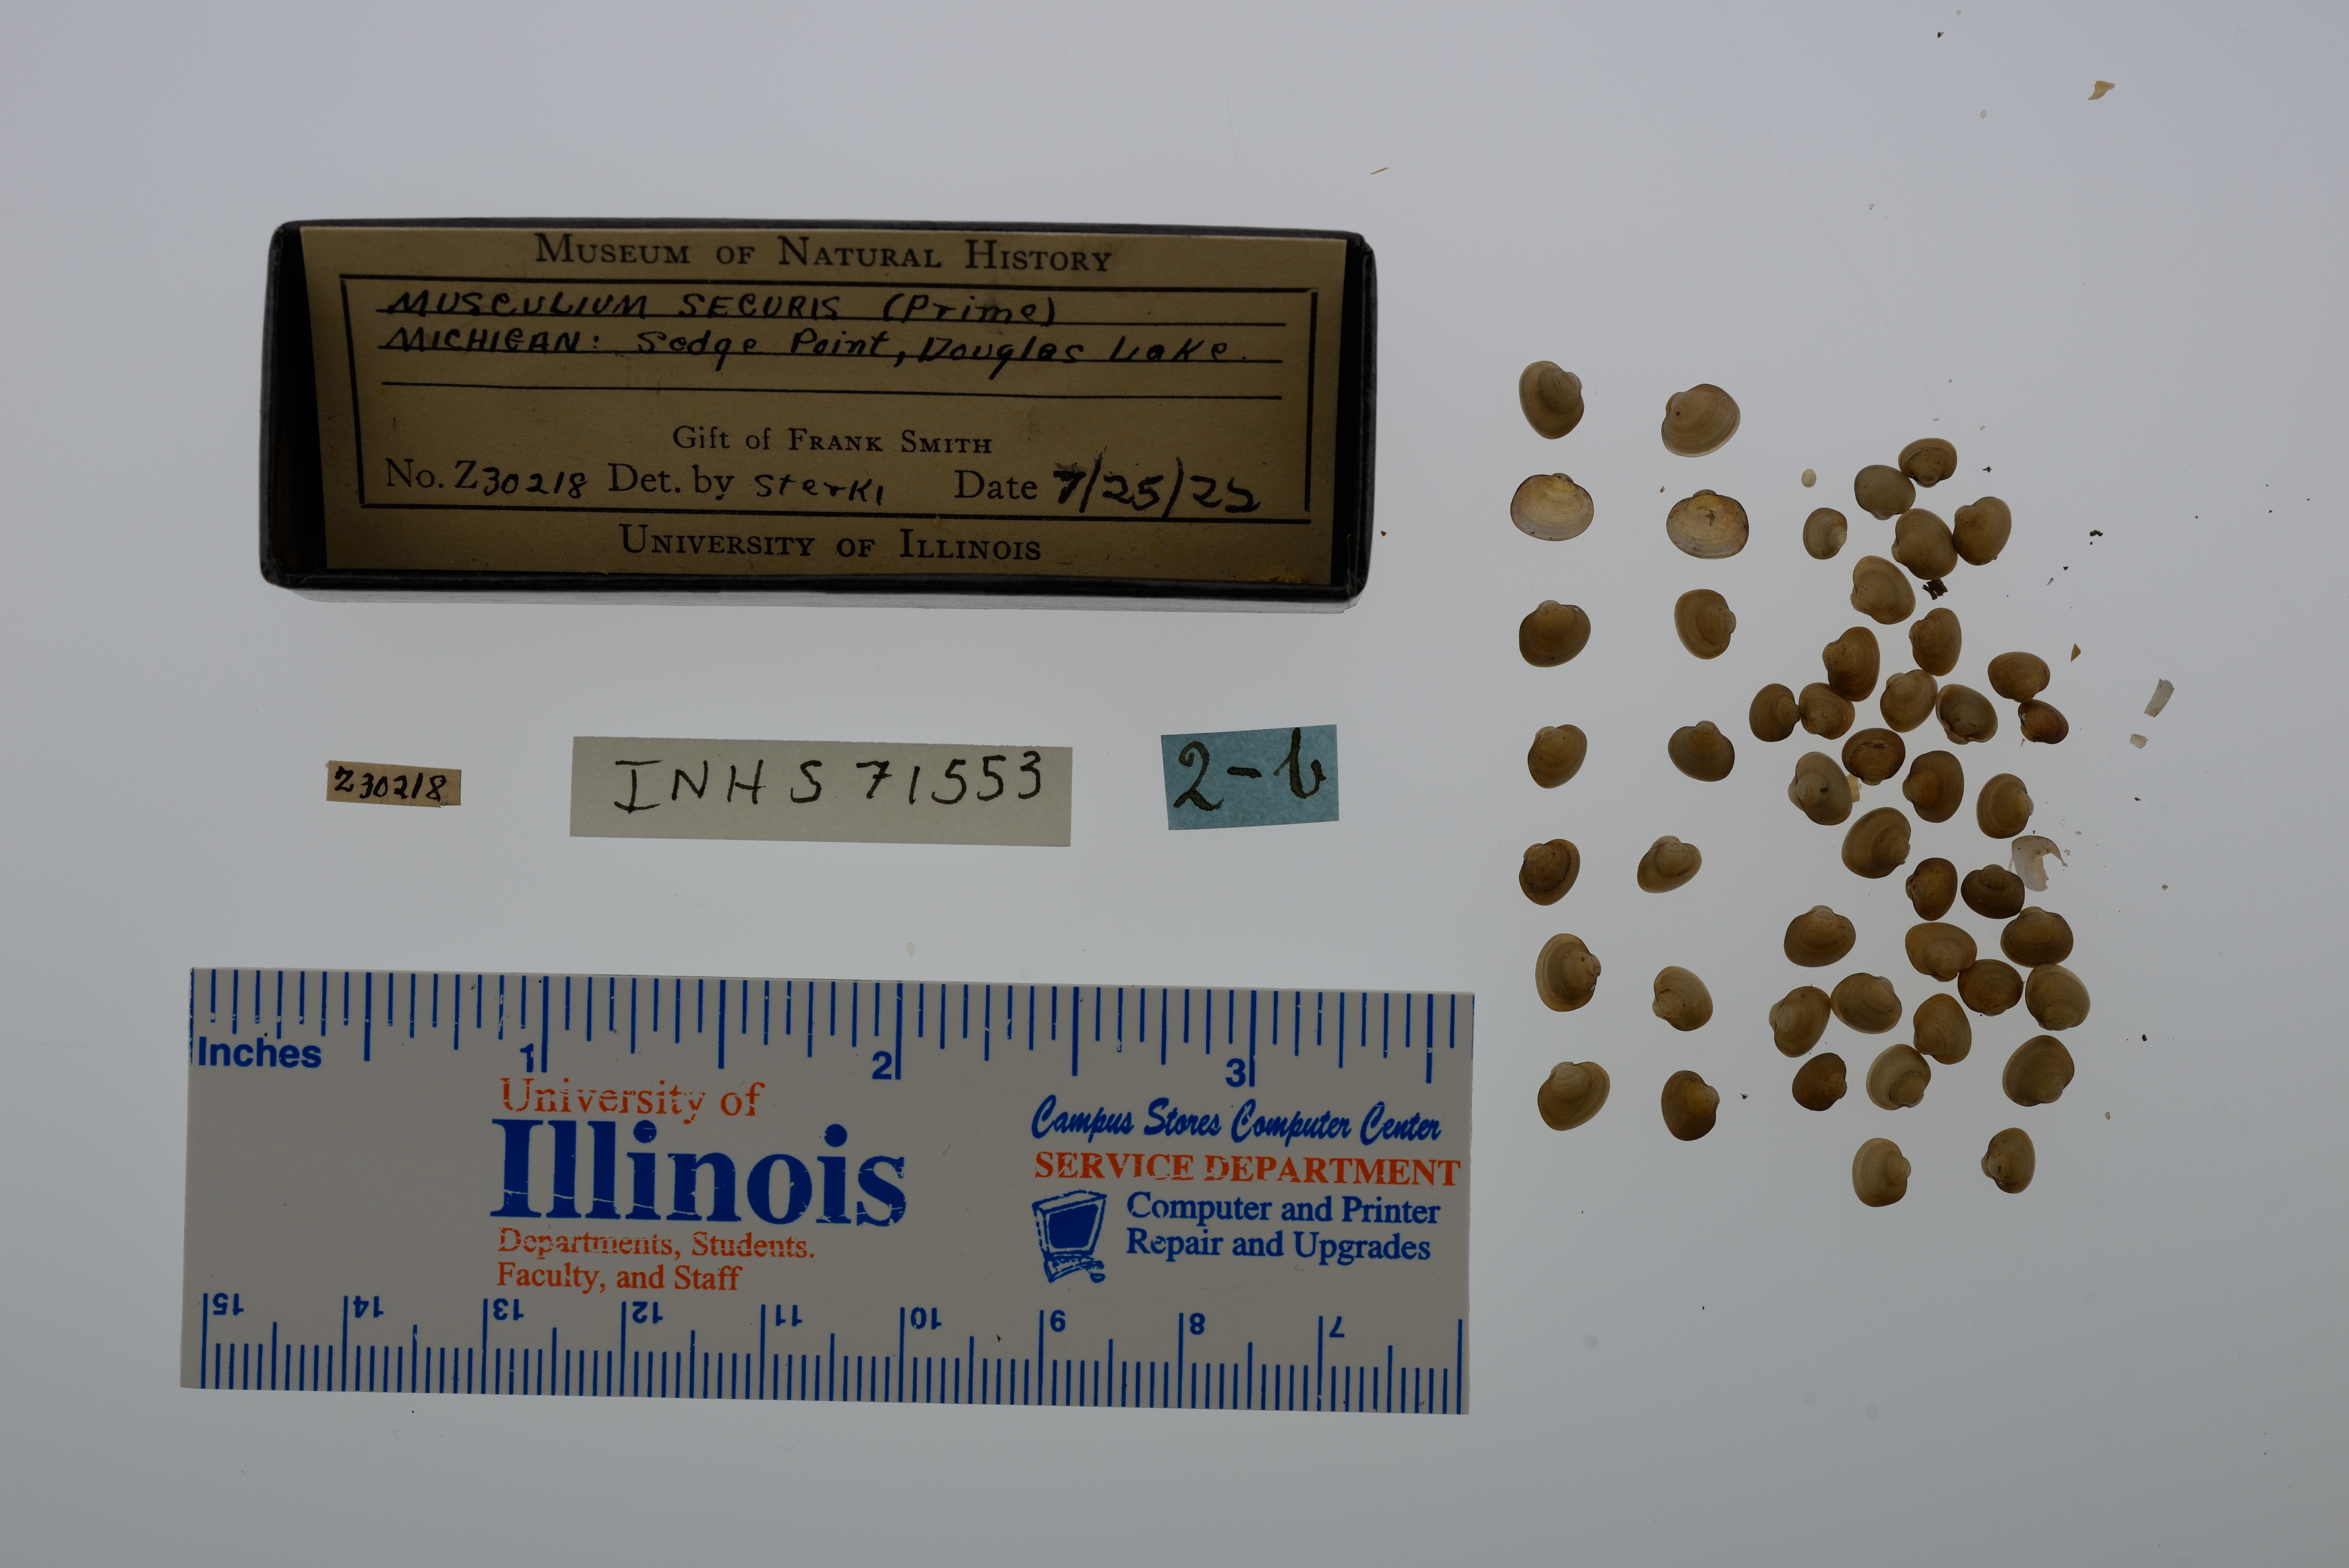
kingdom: Animalia
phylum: Mollusca
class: Bivalvia
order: Sphaeriida
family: Sphaeriidae
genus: Musculium
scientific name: Musculium securis
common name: Pond fingerclam
